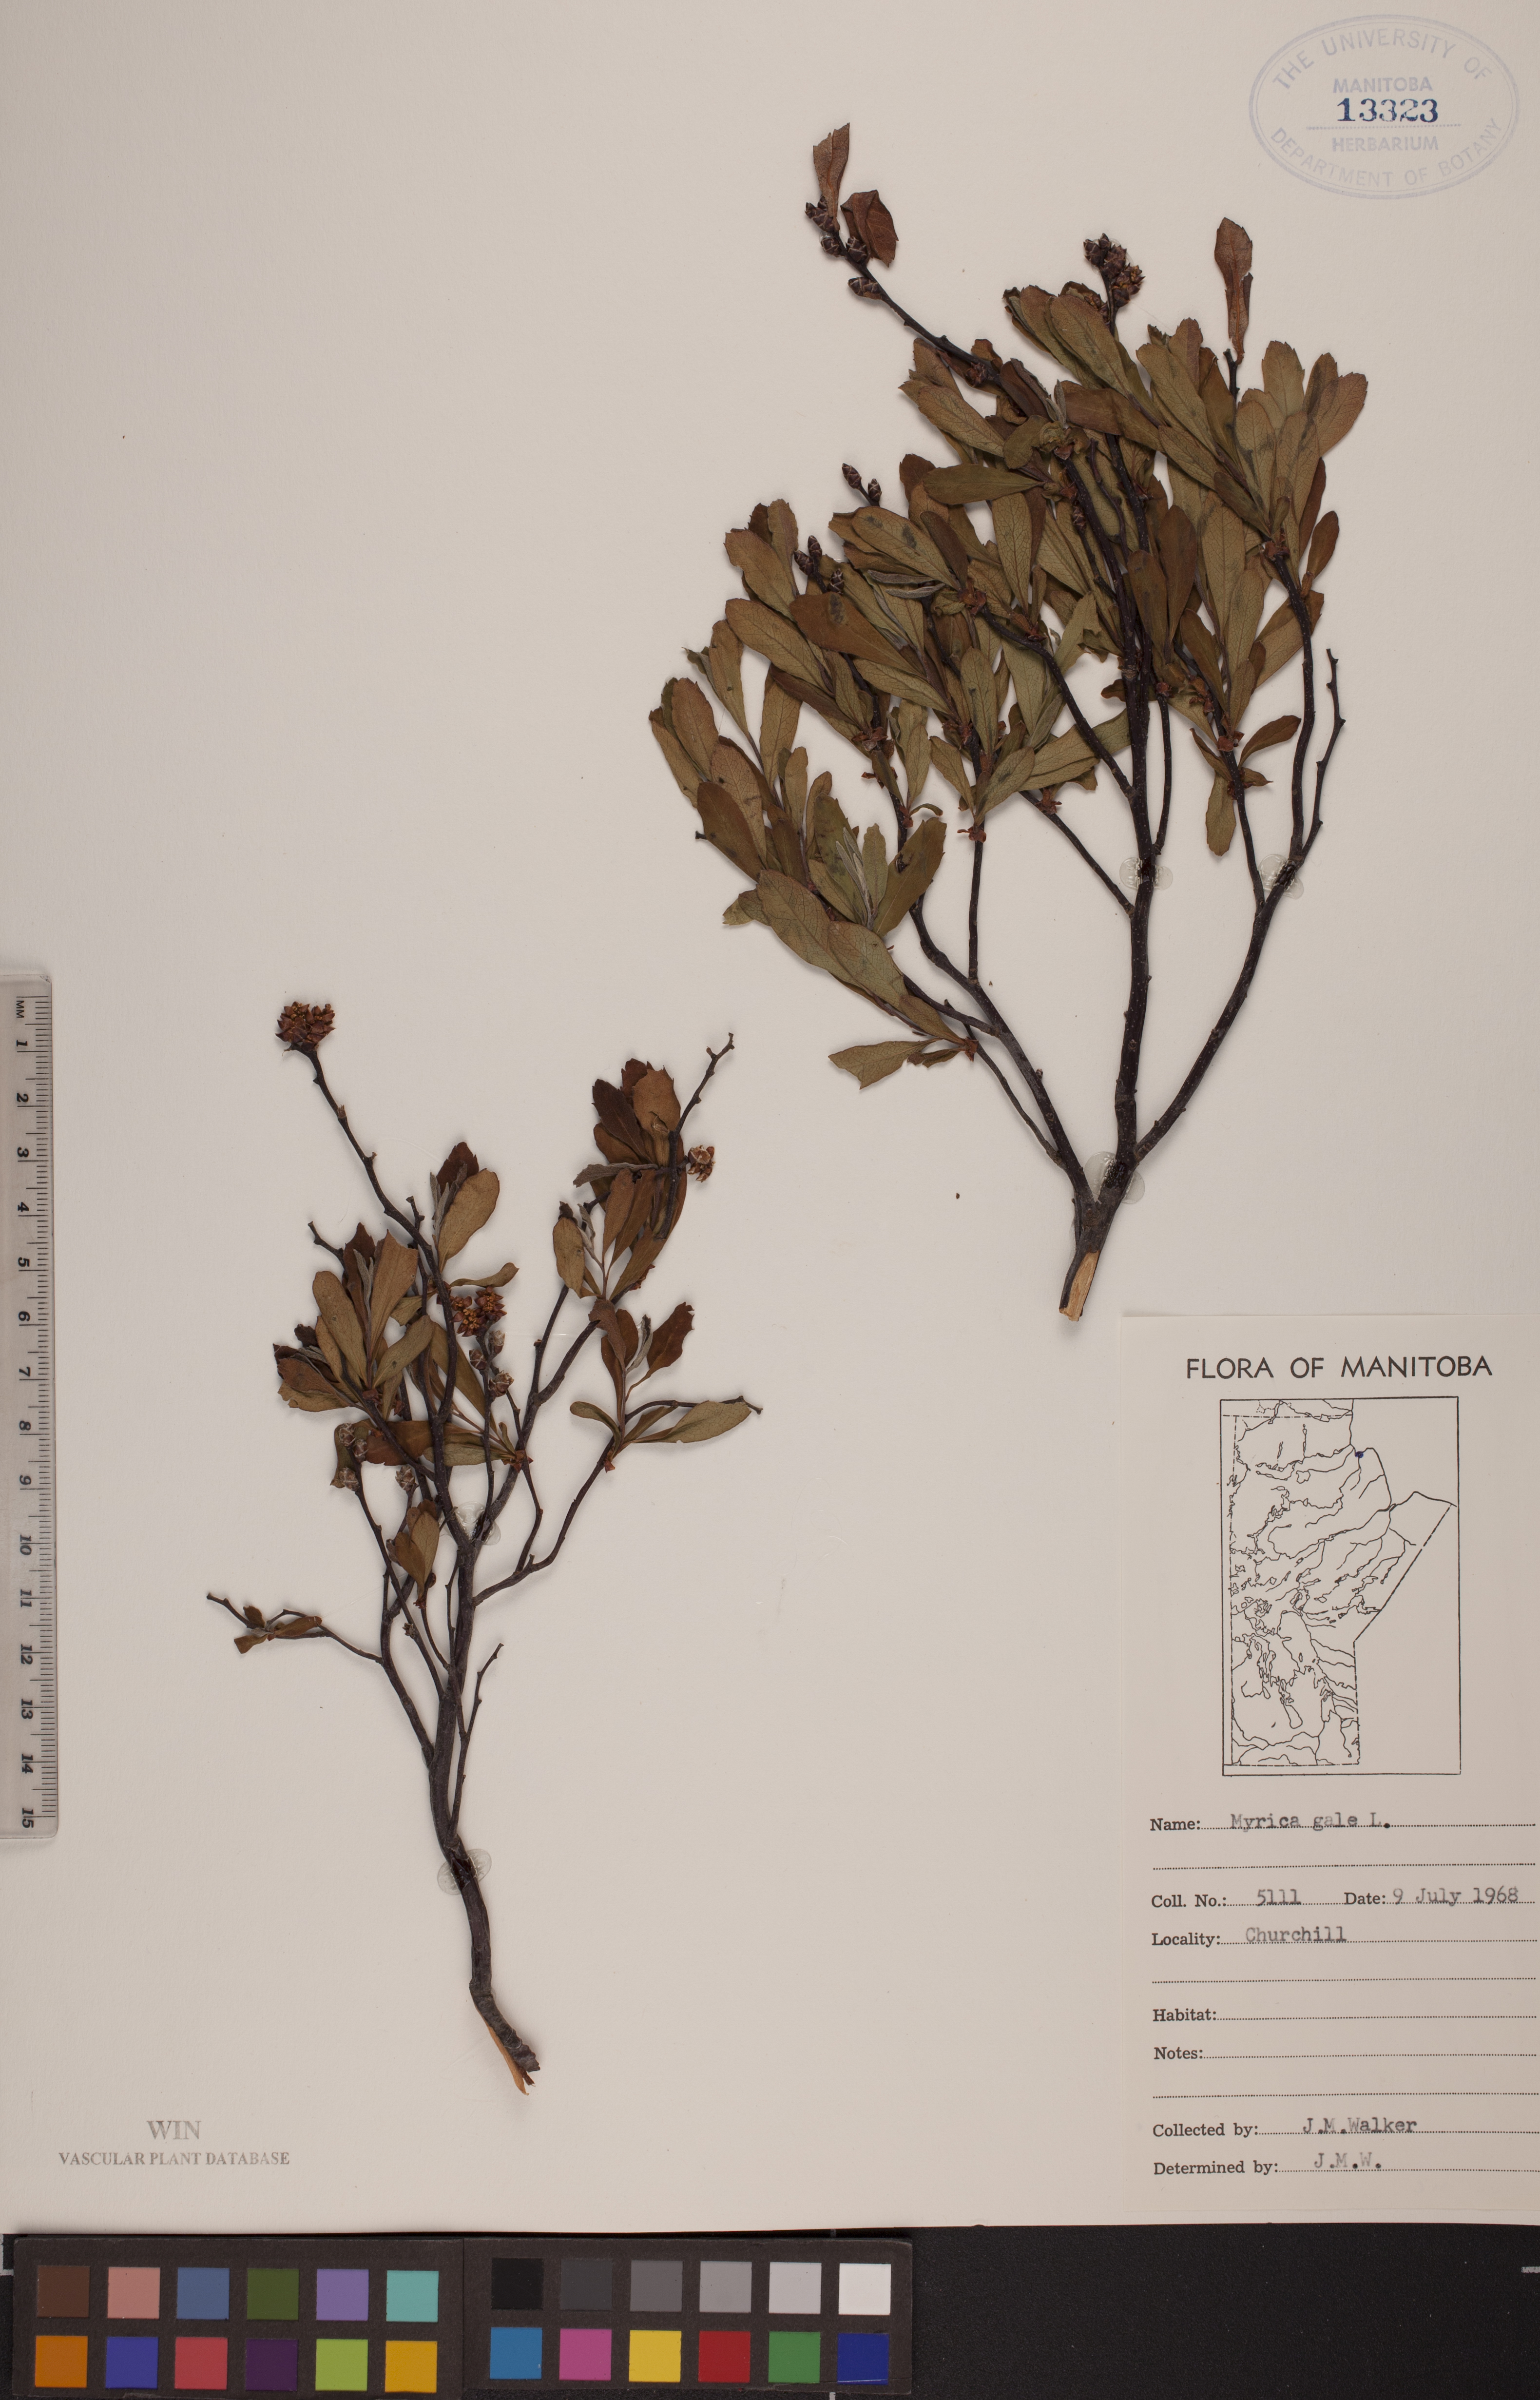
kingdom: Plantae
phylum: Tracheophyta
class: Magnoliopsida
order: Fagales
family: Myricaceae
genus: Myrica
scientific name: Myrica gale
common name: Sweet gale
